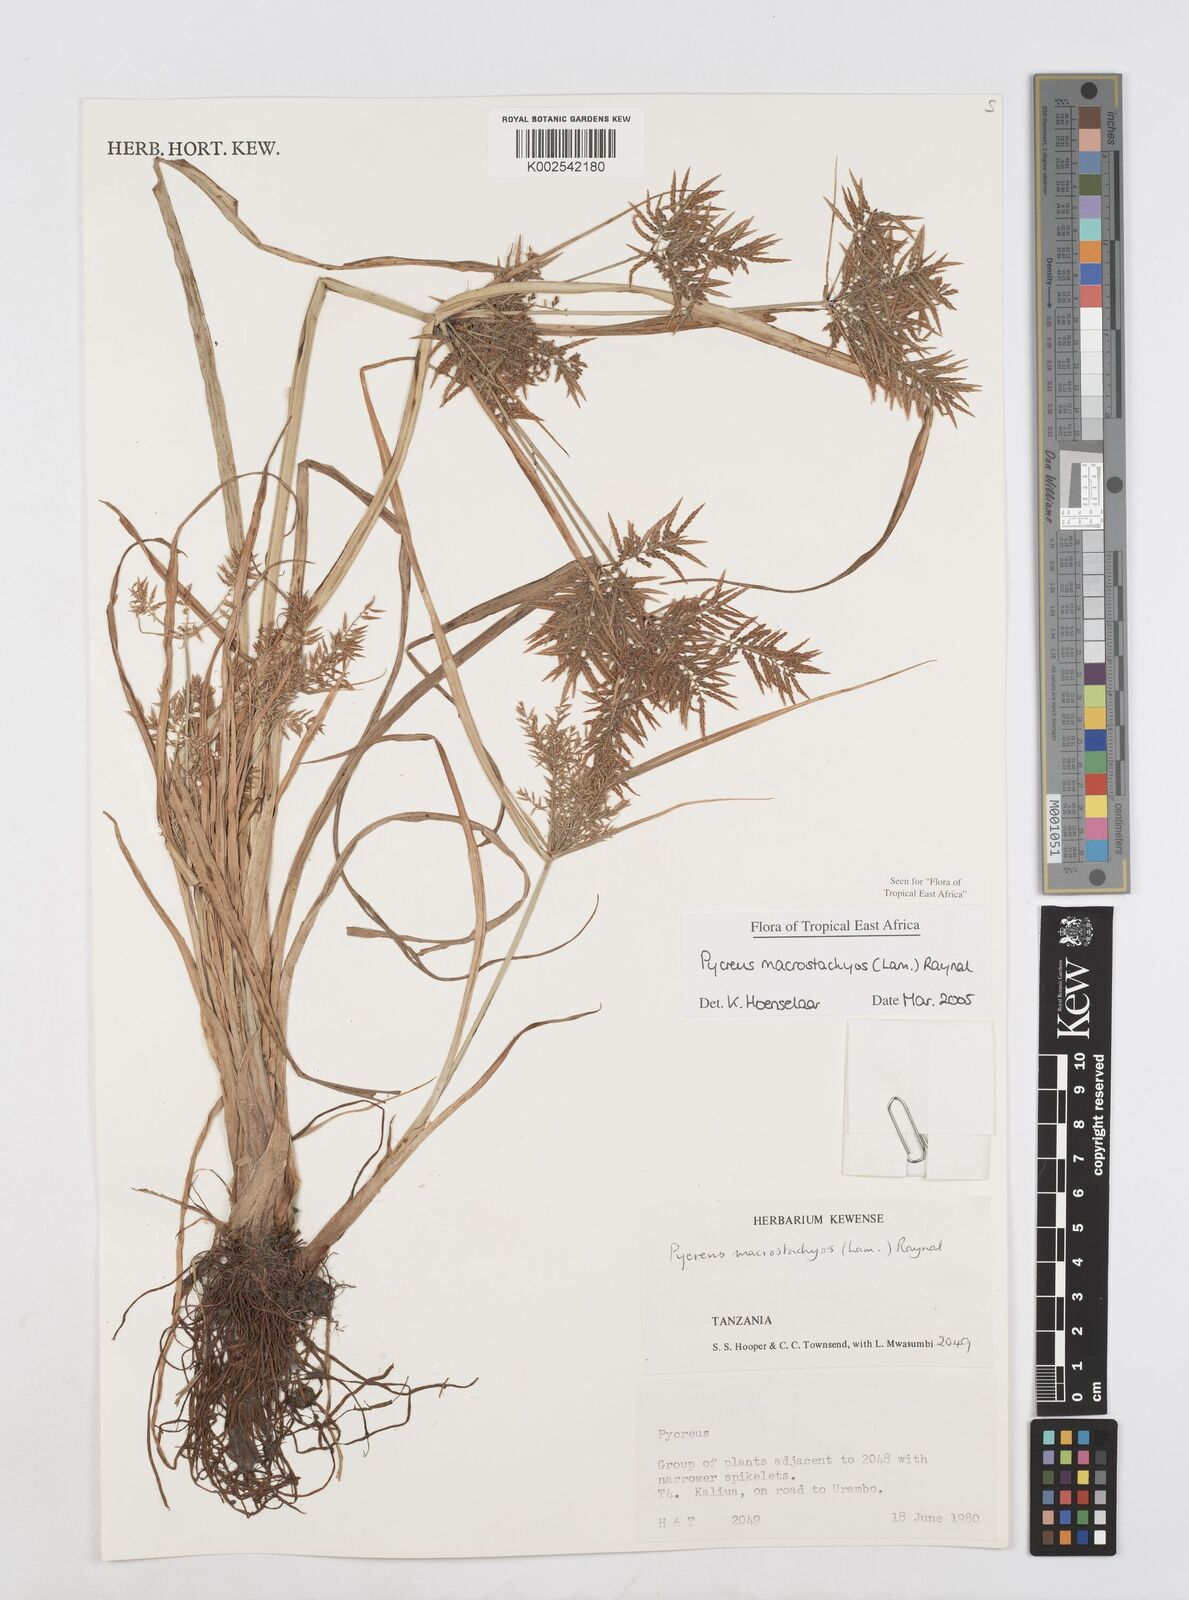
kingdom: Plantae
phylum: Tracheophyta
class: Liliopsida
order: Poales
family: Cyperaceae
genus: Cyperus
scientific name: Cyperus macrostachyos
